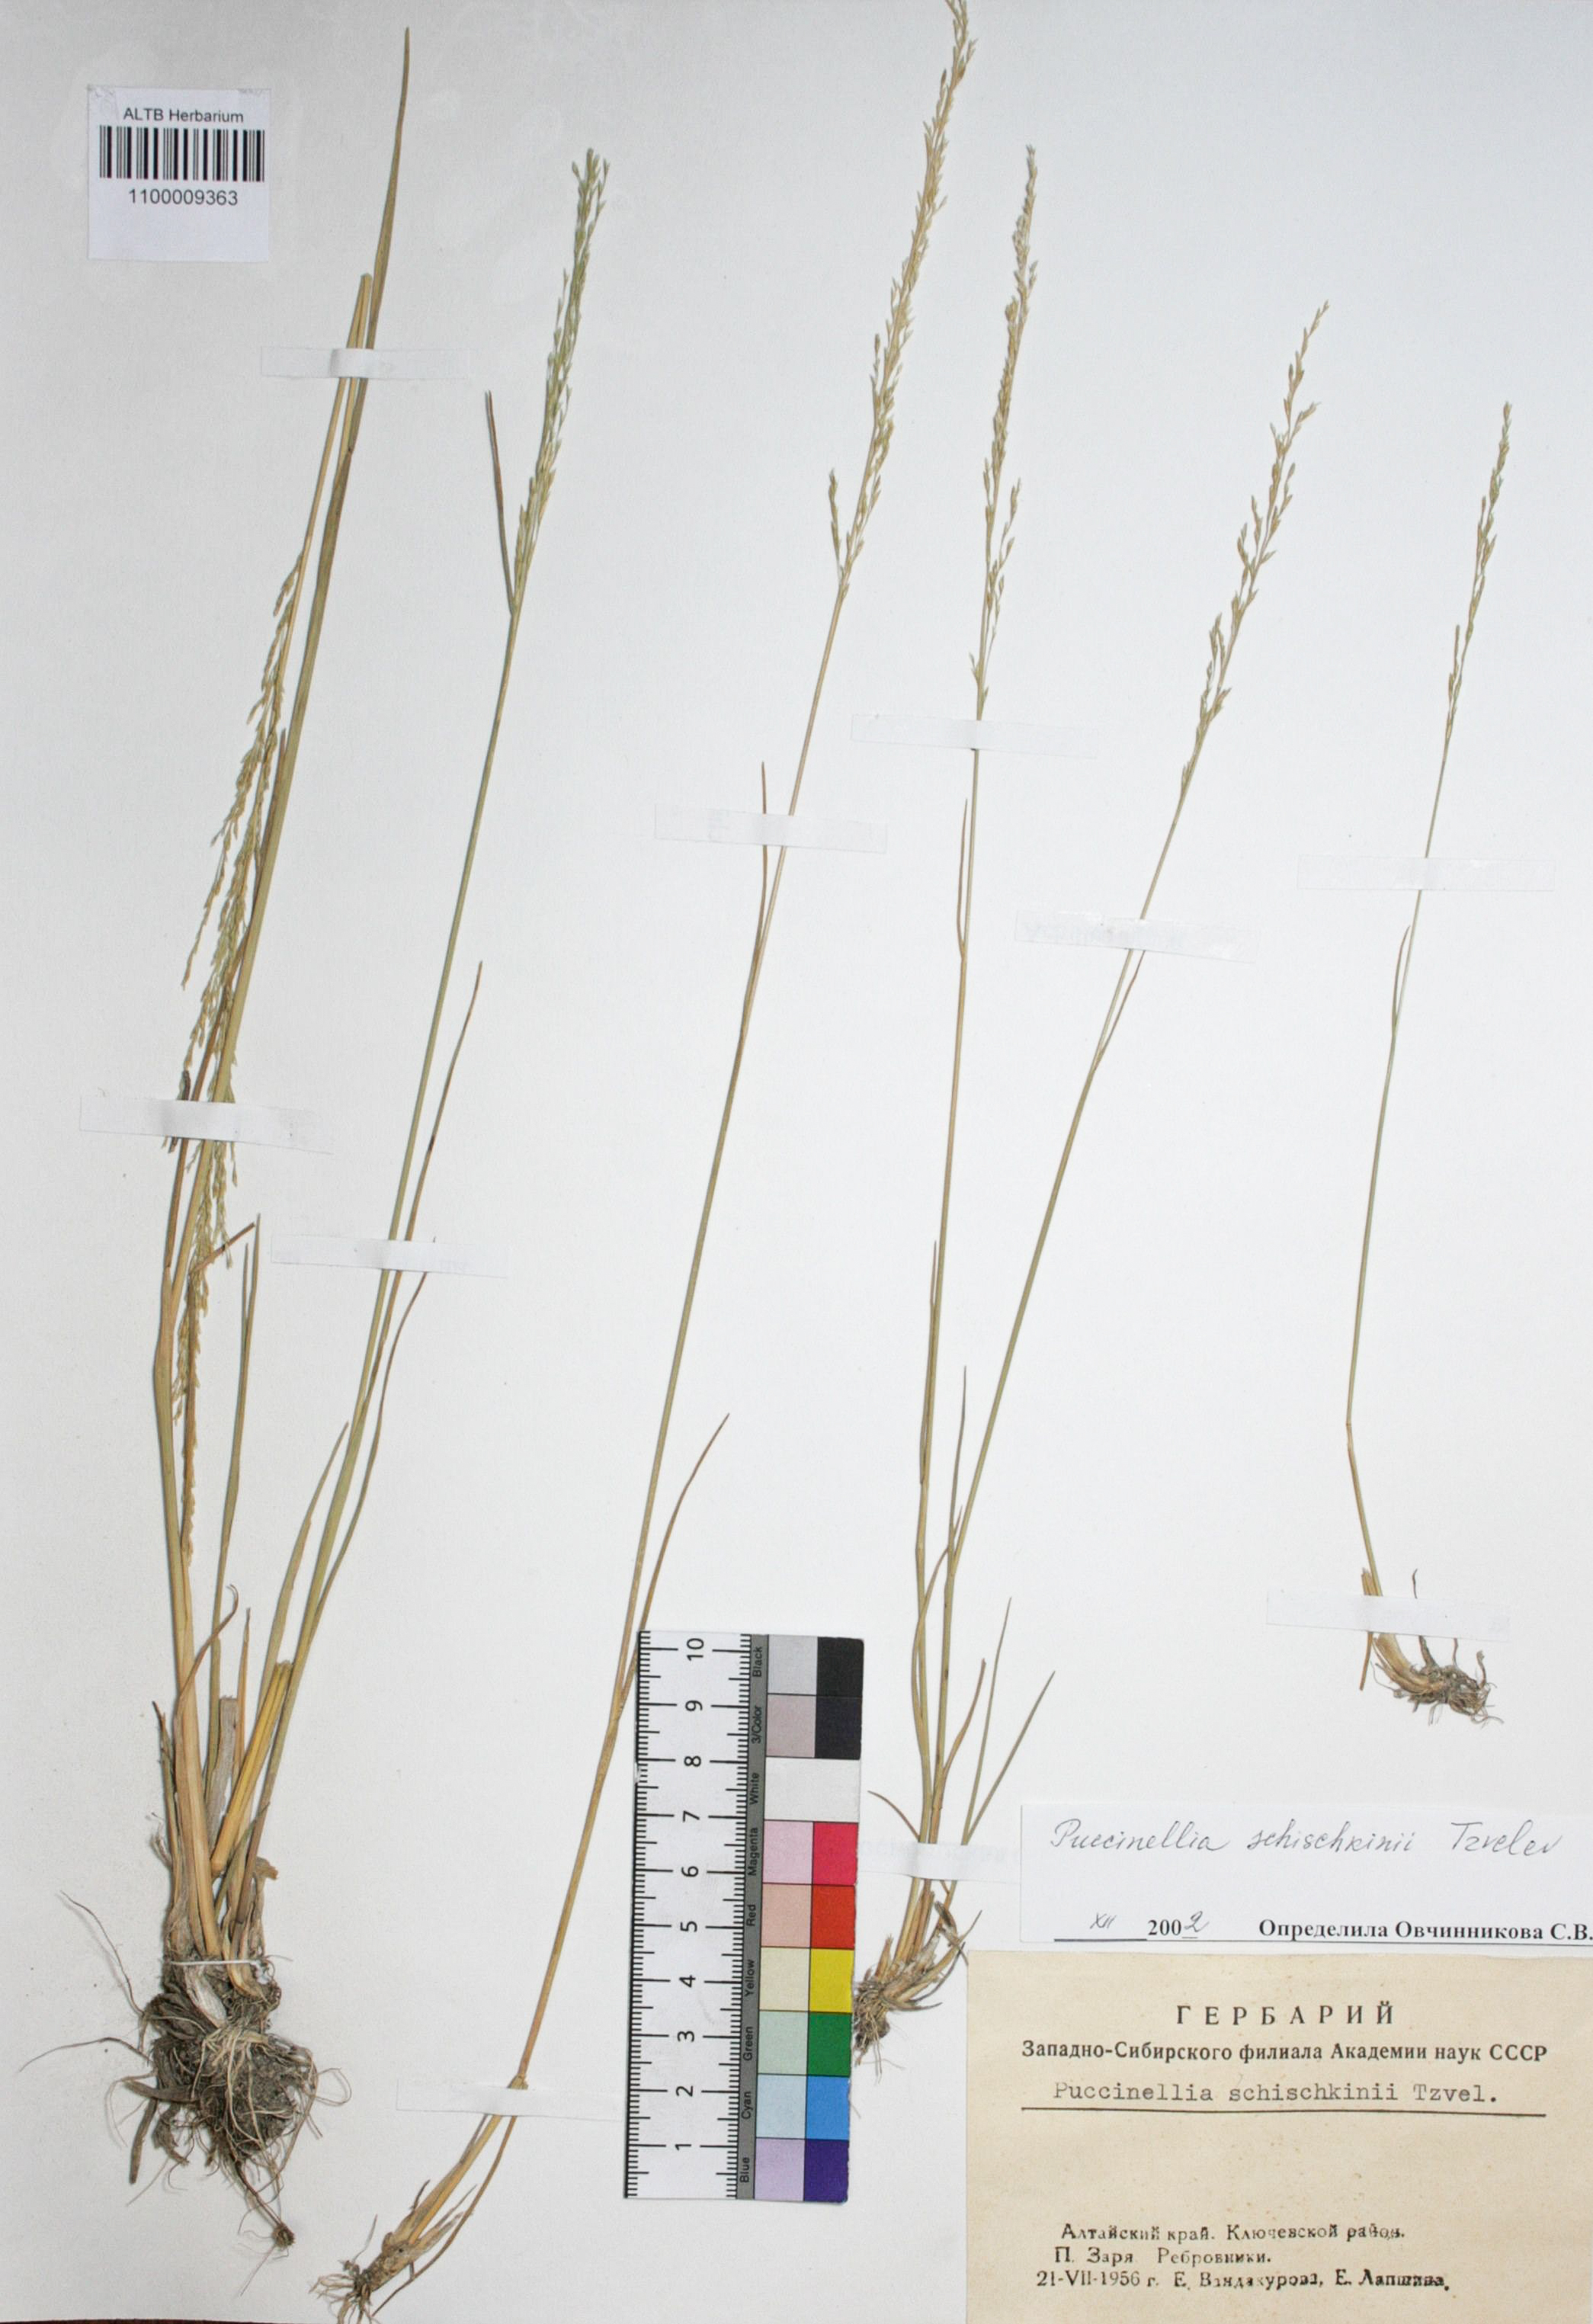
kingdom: Plantae
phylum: Tracheophyta
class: Liliopsida
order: Poales
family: Poaceae
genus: Puccinellia
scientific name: Puccinellia schischkinii
